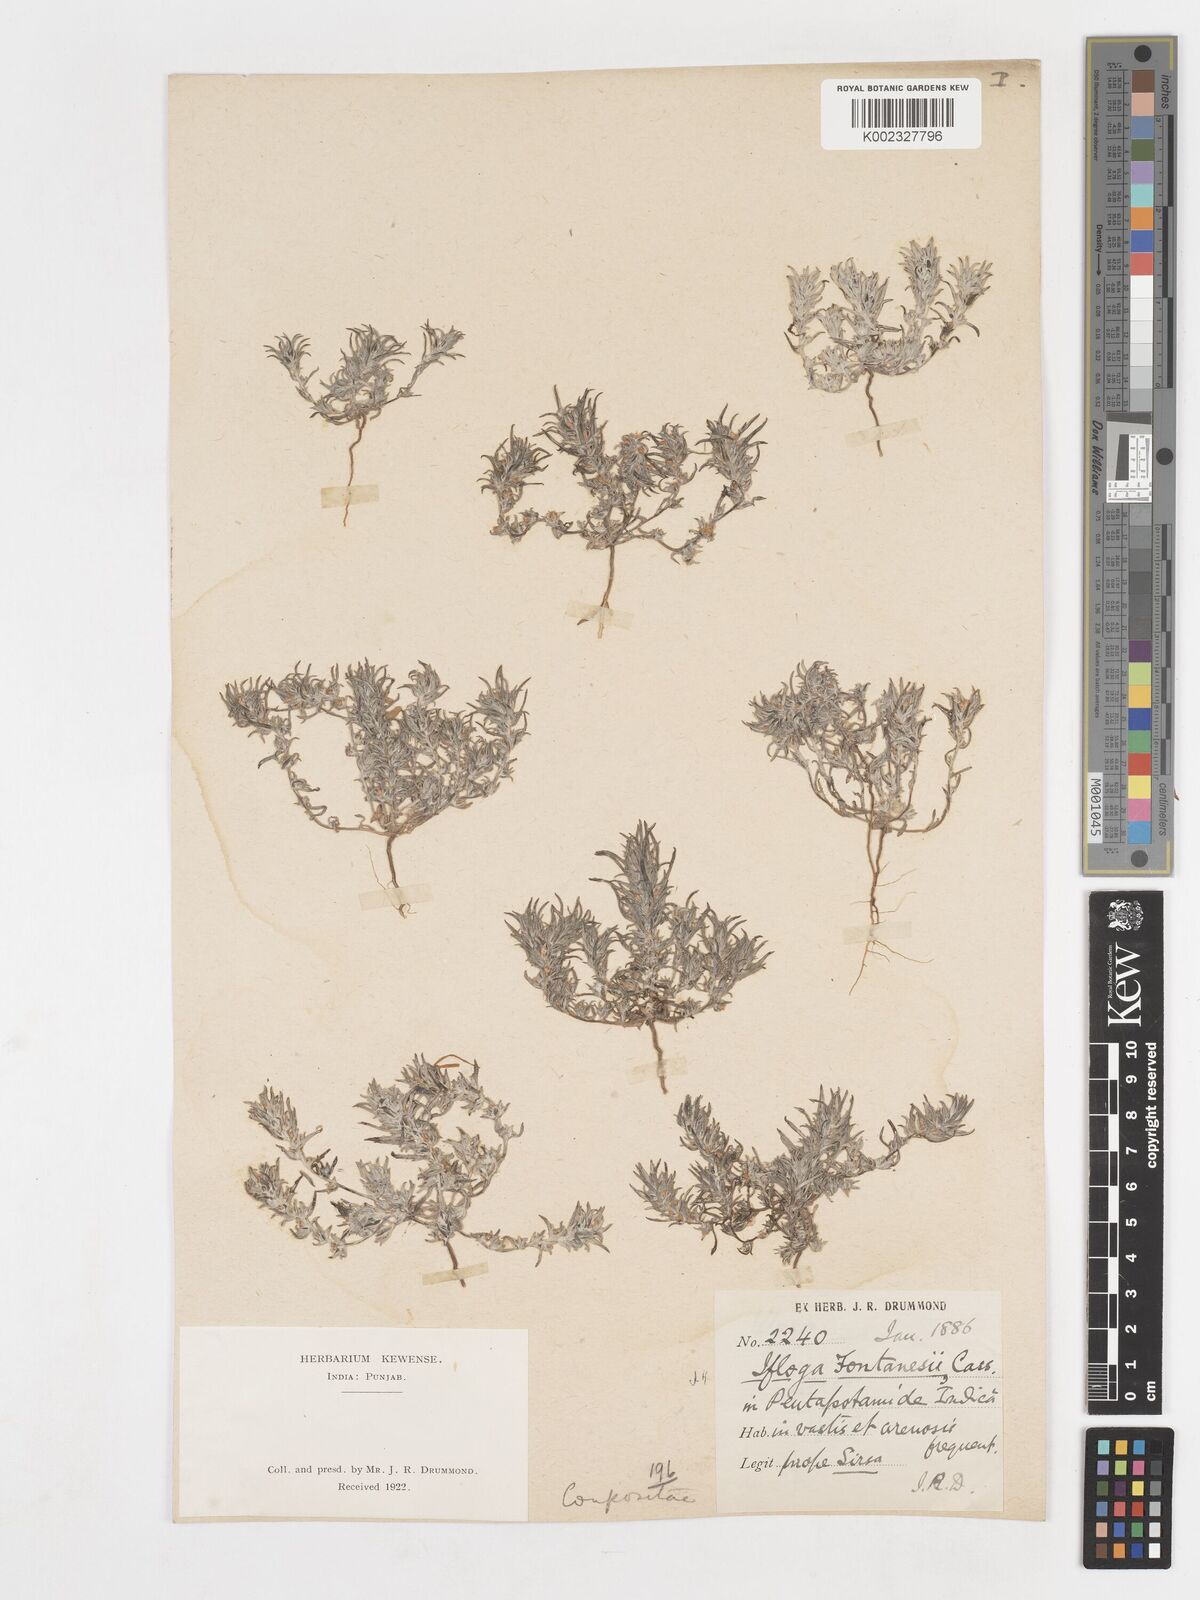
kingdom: Plantae
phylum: Tracheophyta
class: Magnoliopsida
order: Asterales
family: Asteraceae
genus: Ifloga
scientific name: Ifloga spicata
